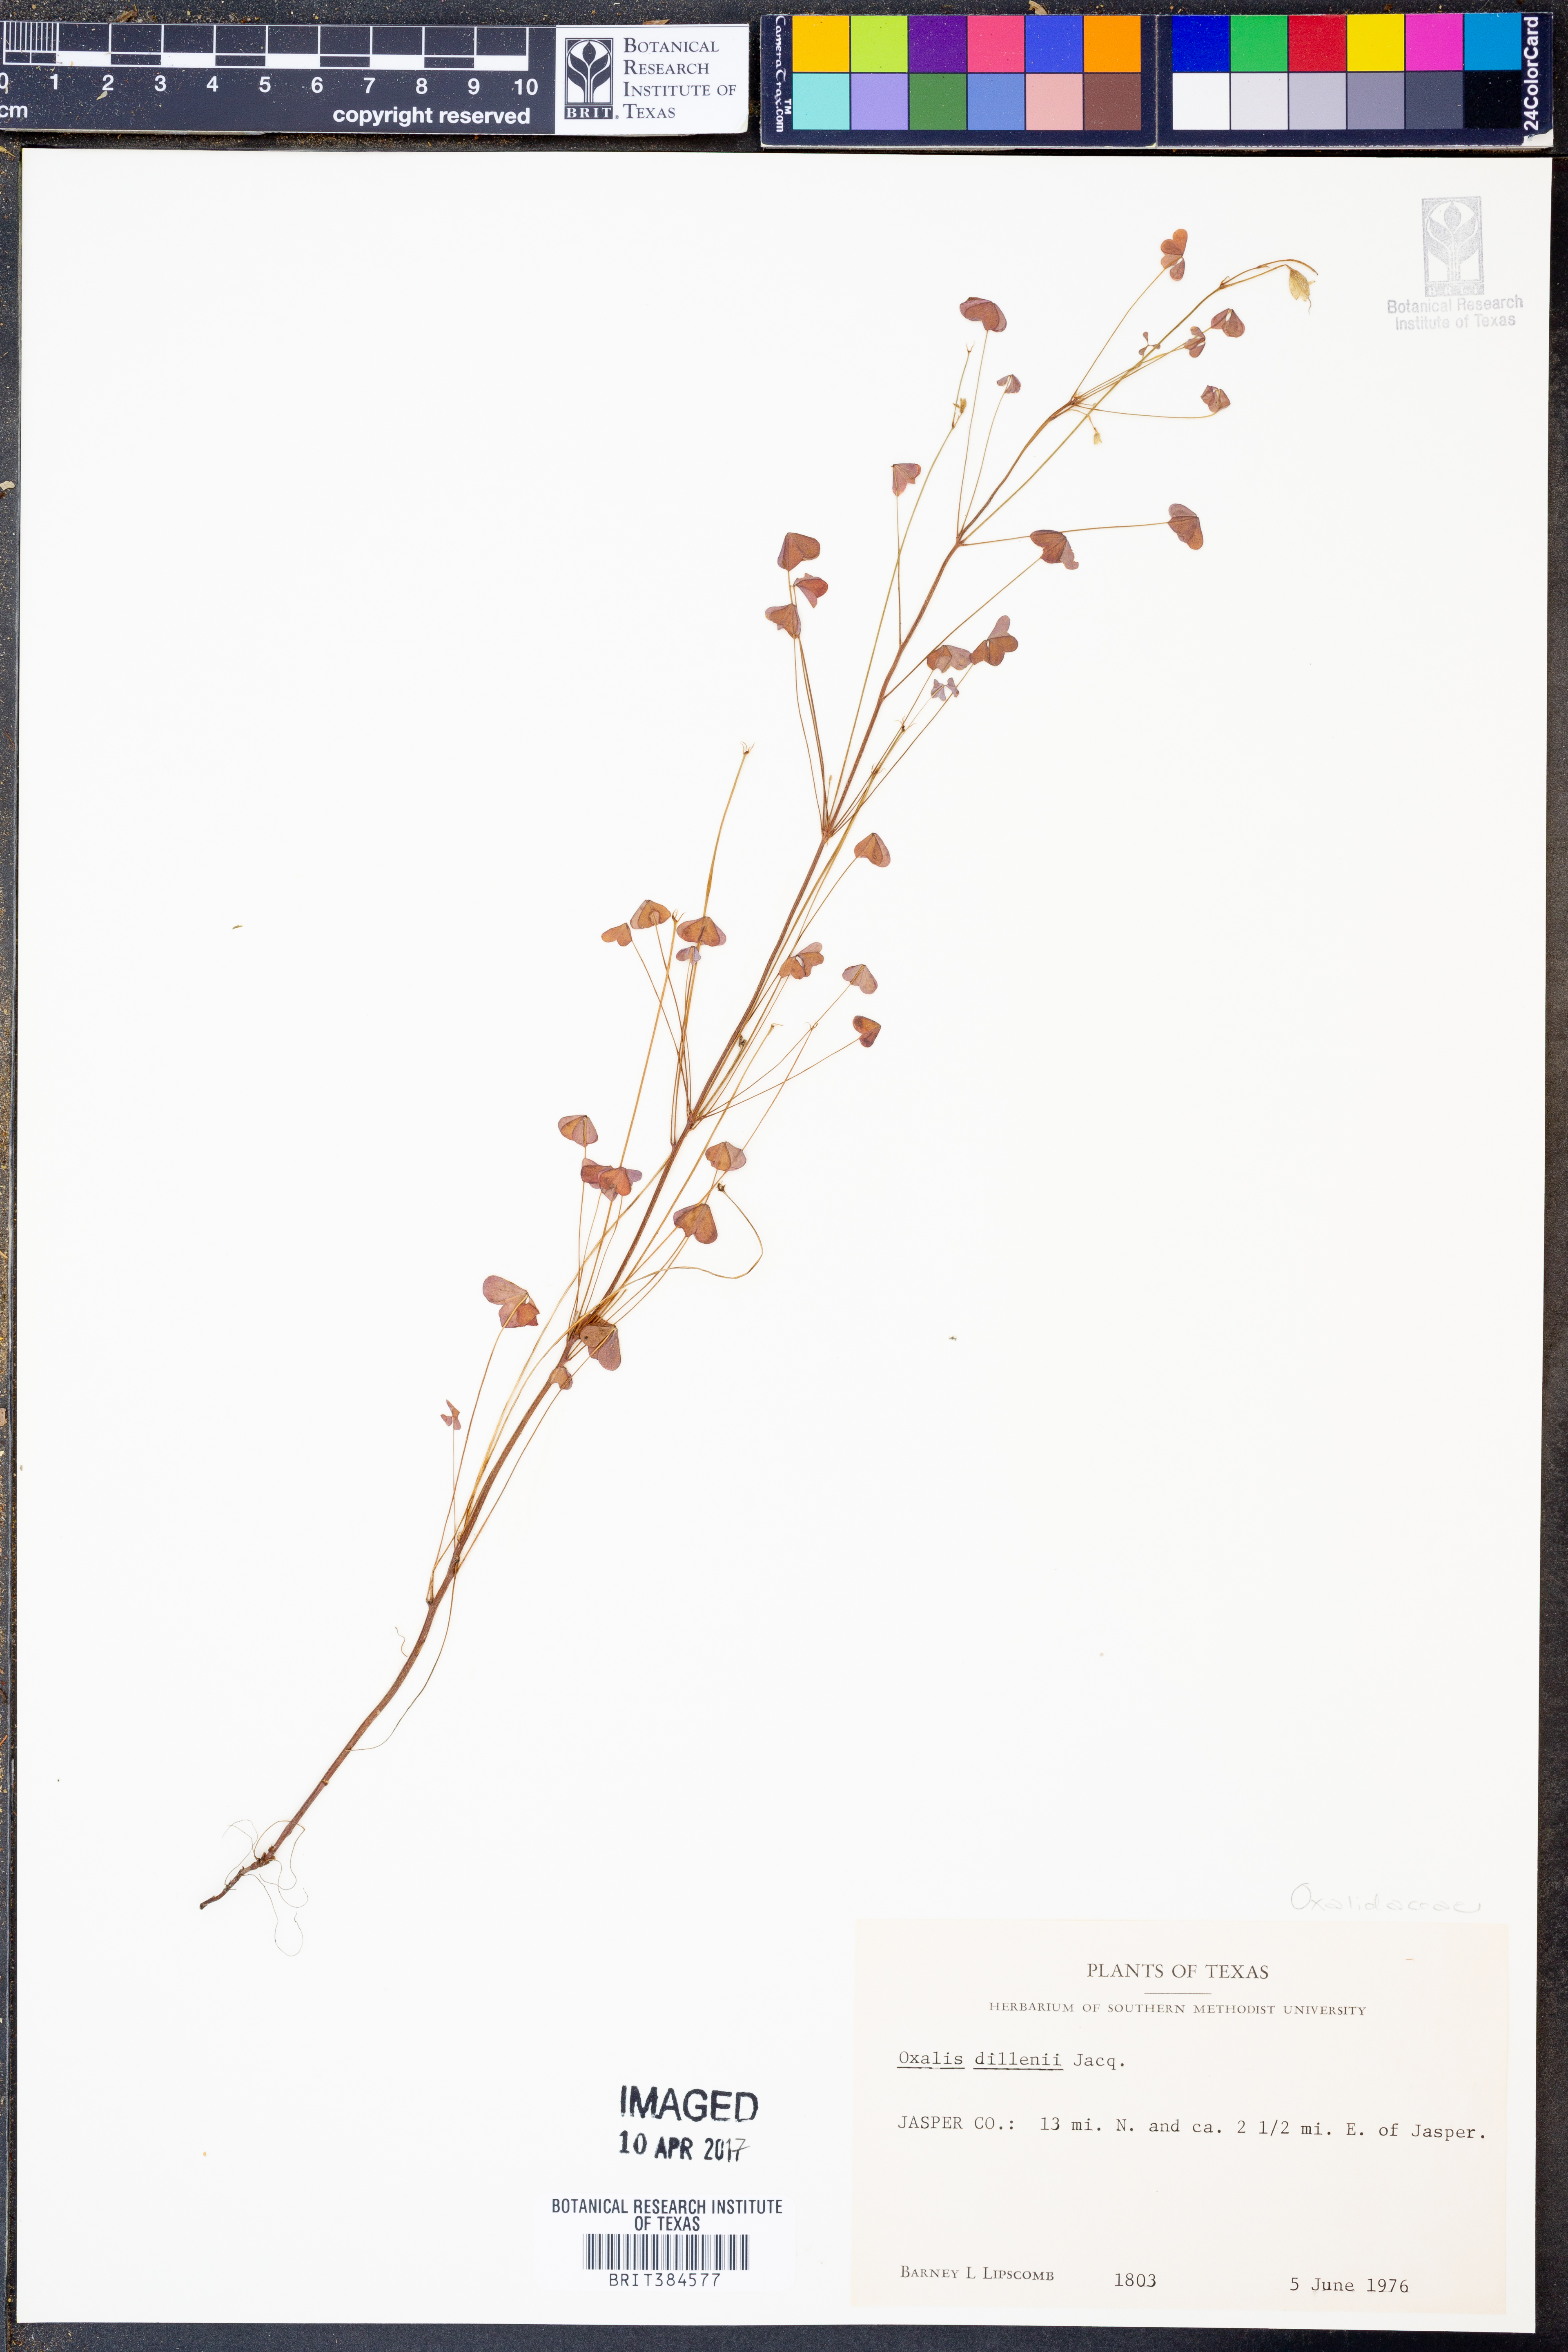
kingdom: Plantae
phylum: Tracheophyta
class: Magnoliopsida
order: Oxalidales
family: Oxalidaceae
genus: Oxalis
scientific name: Oxalis dillenii
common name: Sussex yellow-sorrel
